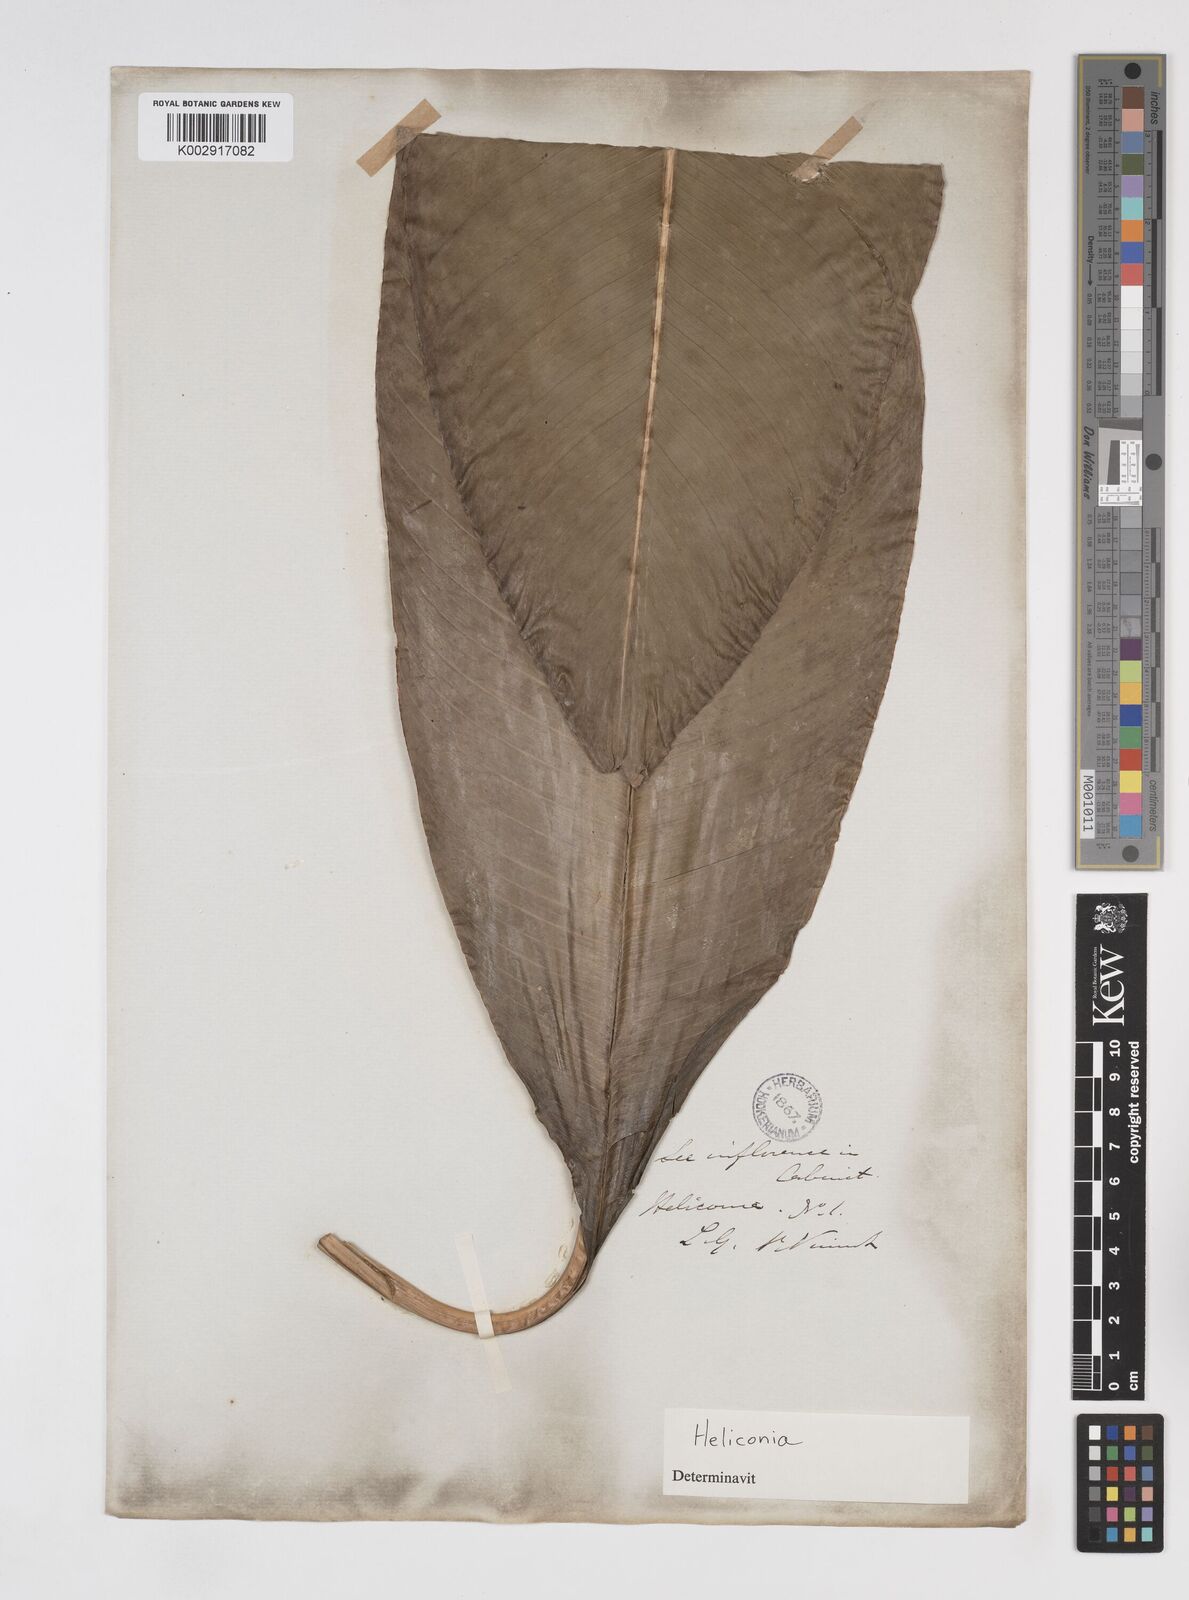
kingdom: Plantae
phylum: Tracheophyta
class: Liliopsida
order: Zingiberales
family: Heliconiaceae
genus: Heliconia
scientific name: Heliconia
